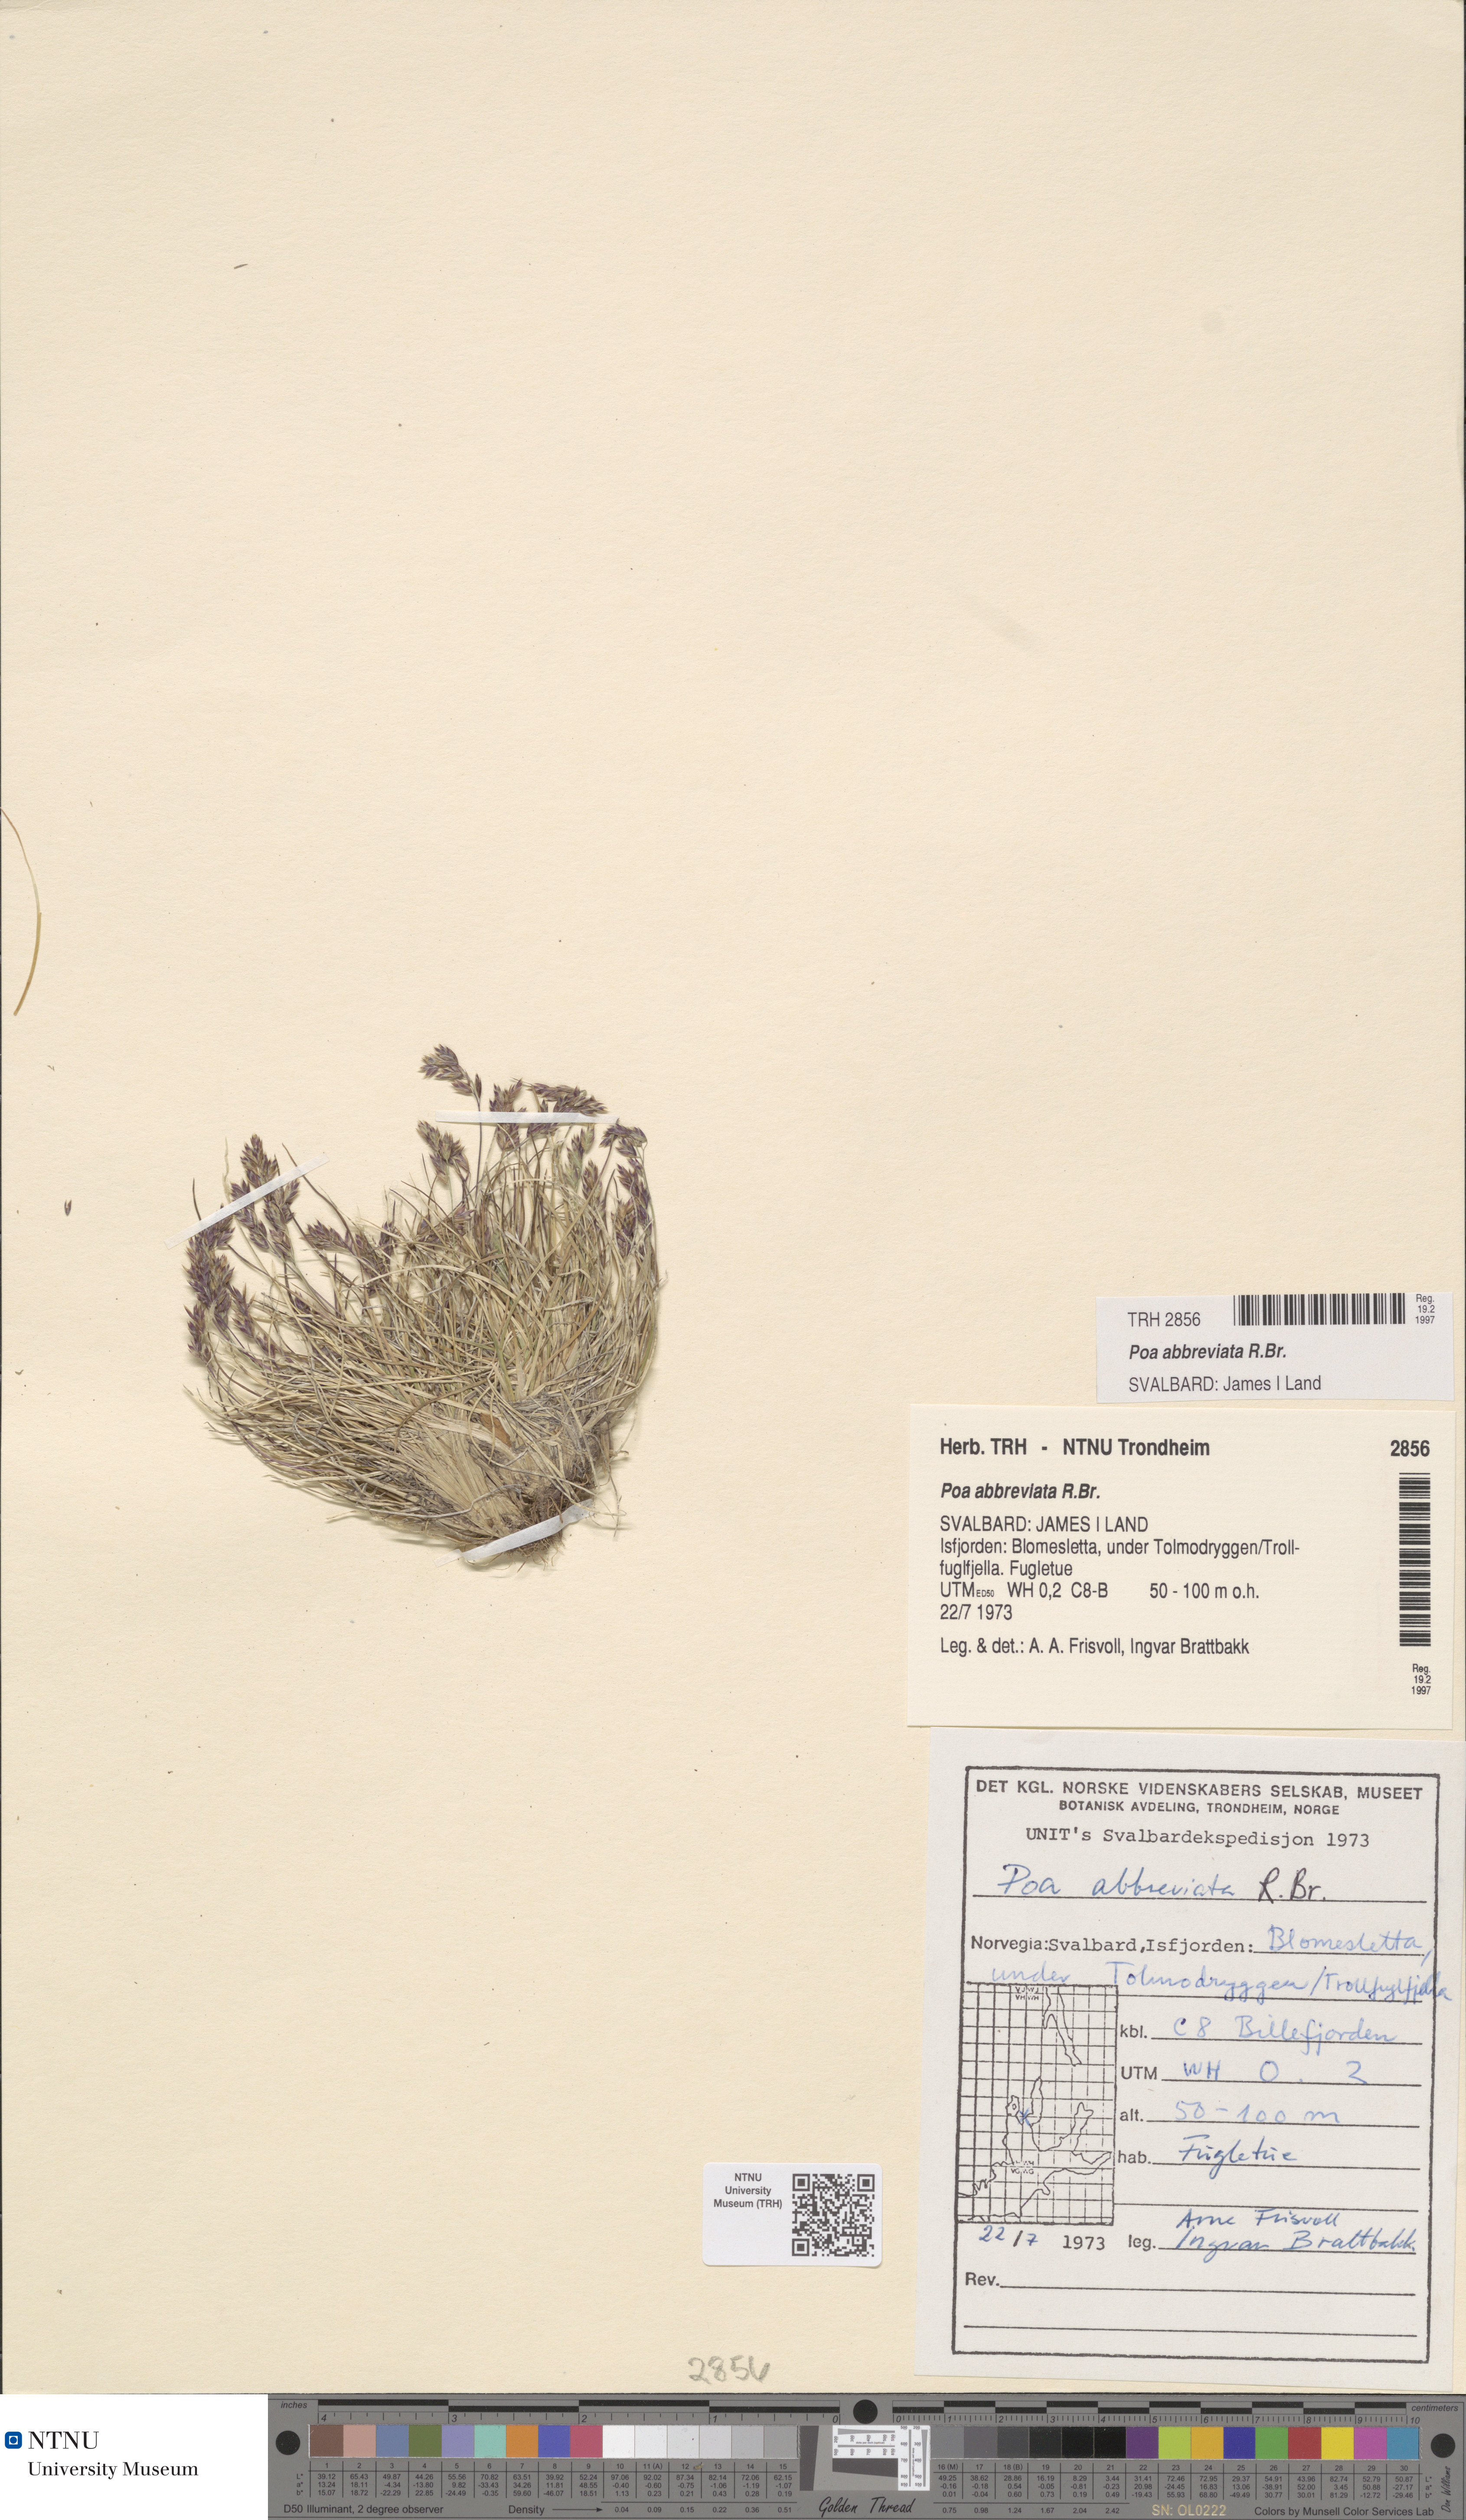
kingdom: Plantae
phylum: Tracheophyta
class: Liliopsida
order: Poales
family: Poaceae
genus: Poa
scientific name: Poa abbreviata
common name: Abbreviated bluegrass
